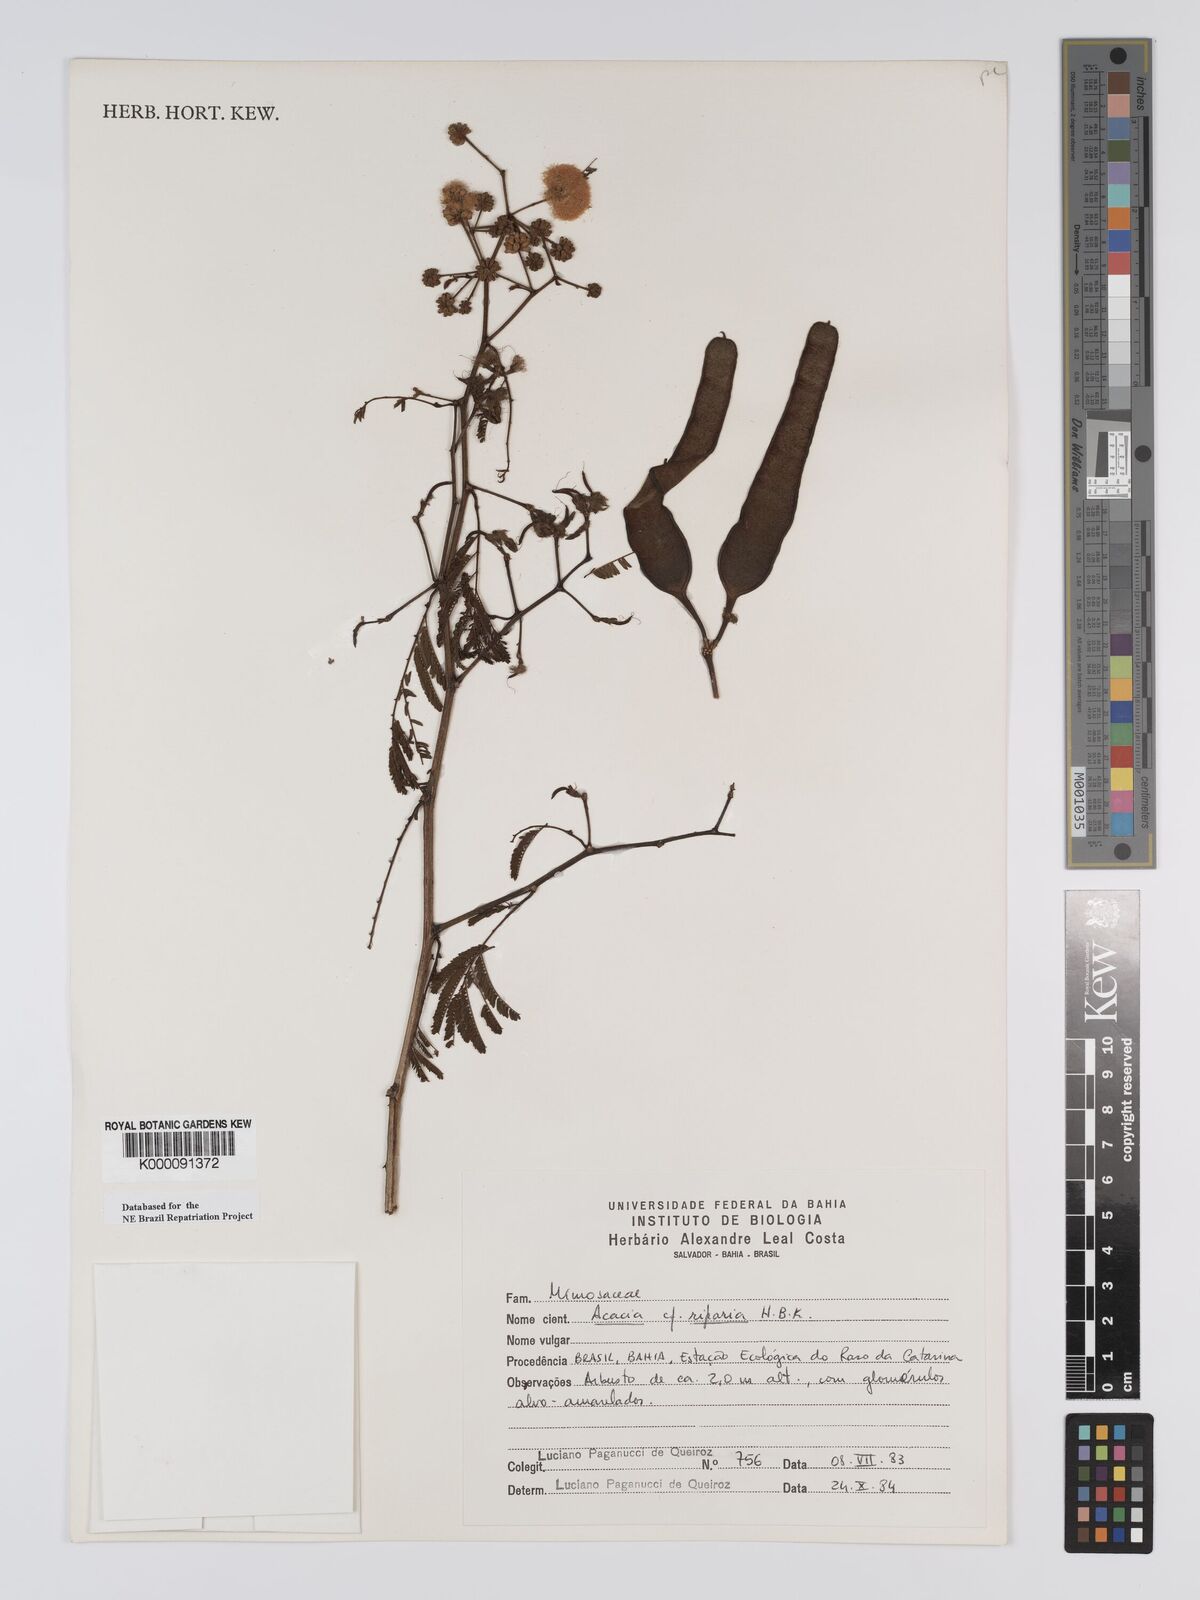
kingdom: Plantae
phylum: Tracheophyta
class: Magnoliopsida
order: Fabales
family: Fabaceae
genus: Senegalia
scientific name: Senegalia riparia
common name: Catch-and-keep
